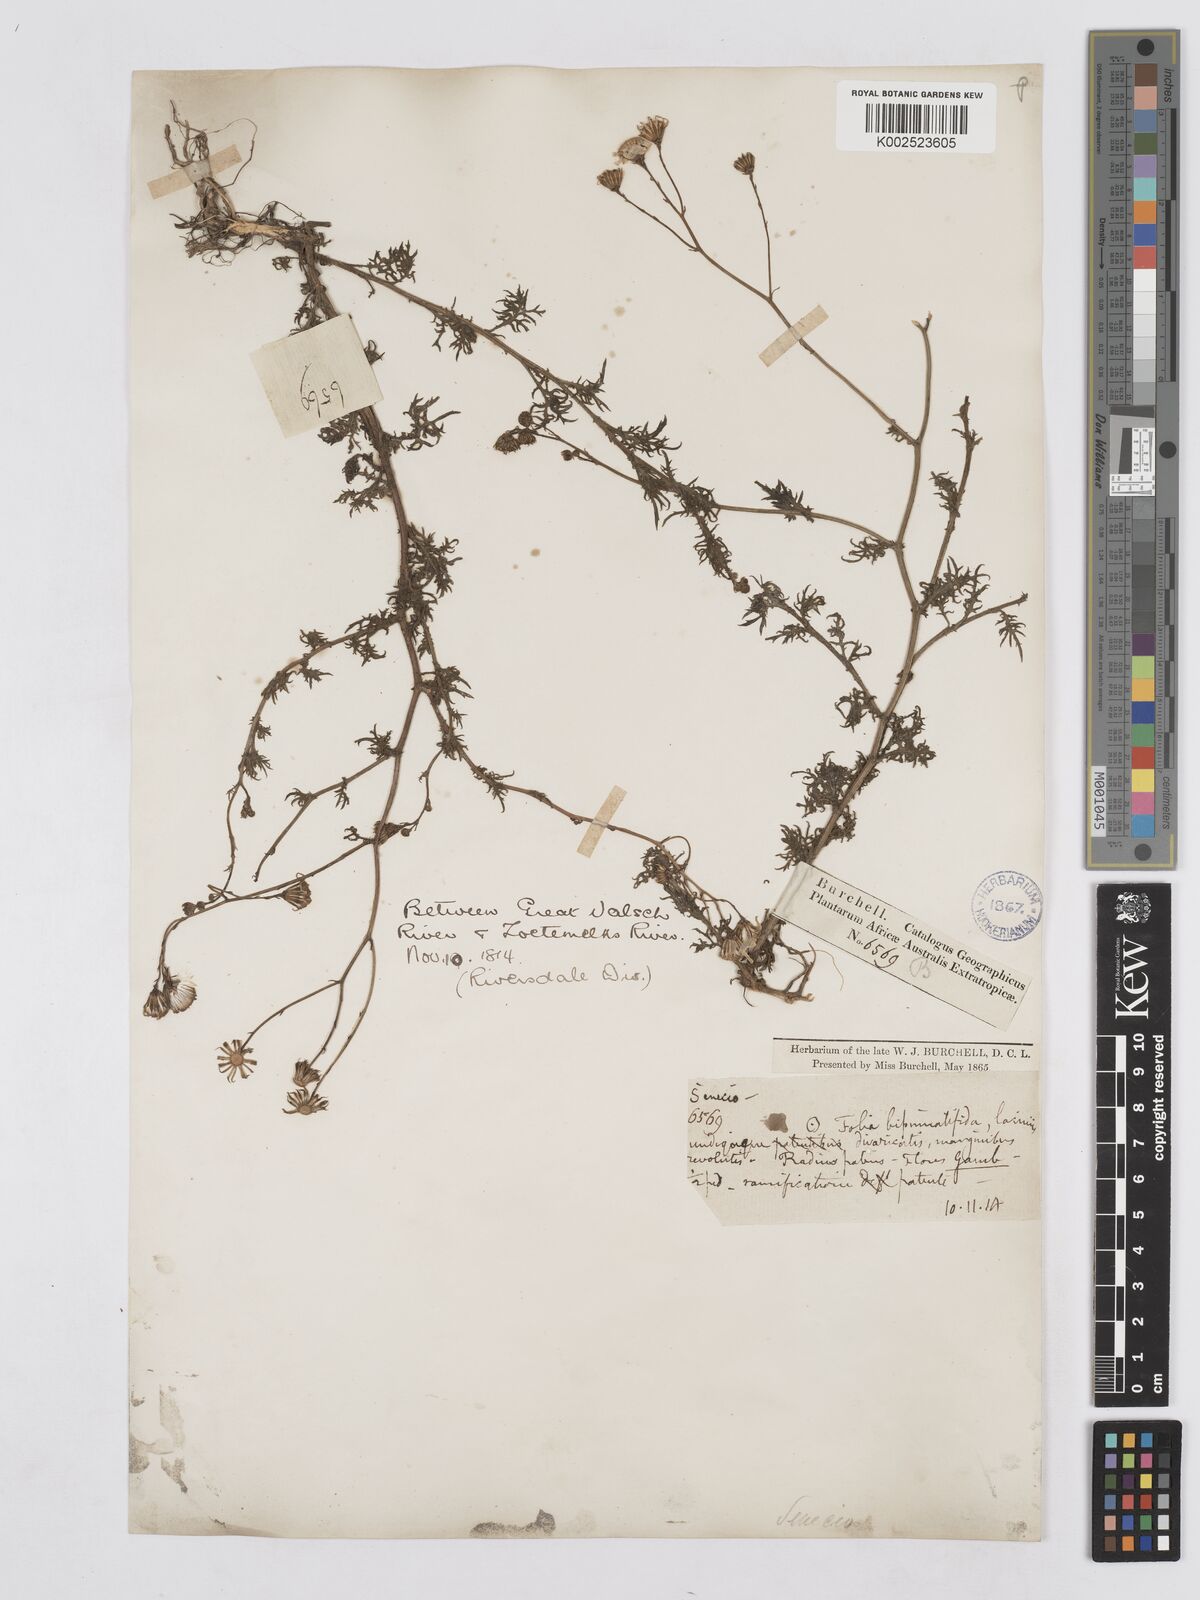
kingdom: Plantae
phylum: Tracheophyta
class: Magnoliopsida
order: Asterales
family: Asteraceae
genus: Senecio
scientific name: Senecio
